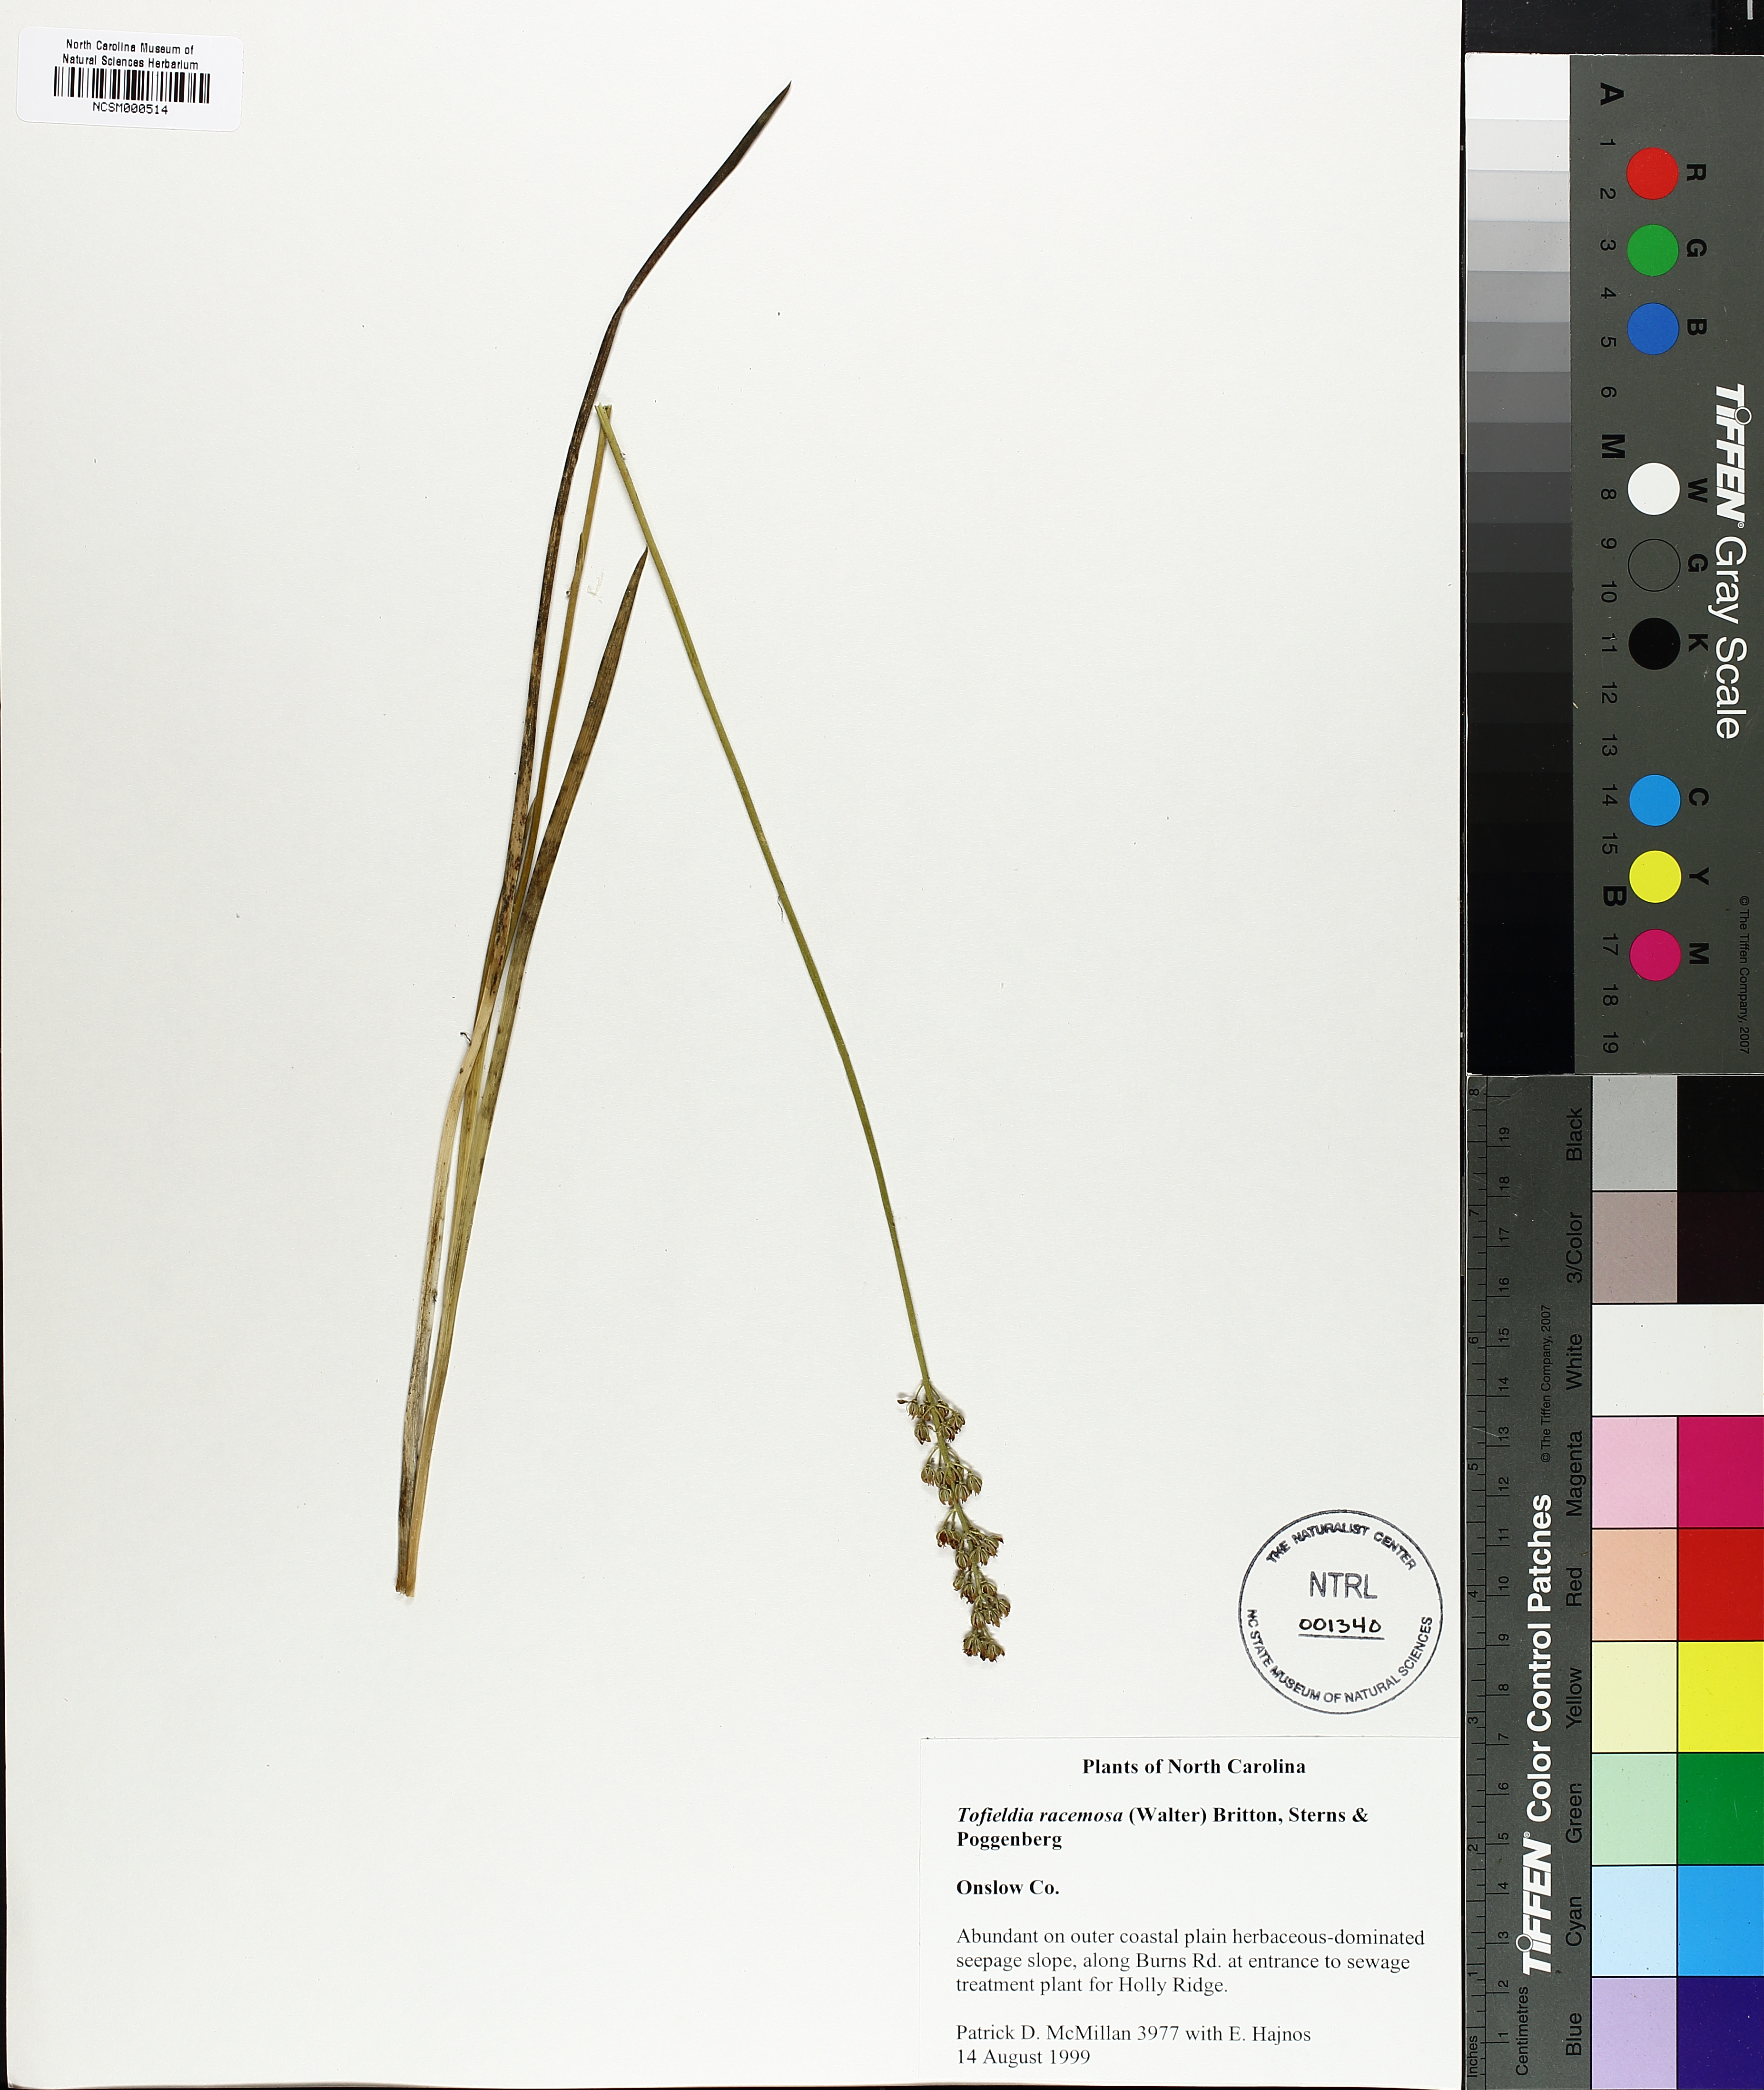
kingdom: Plantae
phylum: Tracheophyta
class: Liliopsida
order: Alismatales
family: Tofieldiaceae
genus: Triantha
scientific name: Triantha racemosa
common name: Coastal false asphodel
